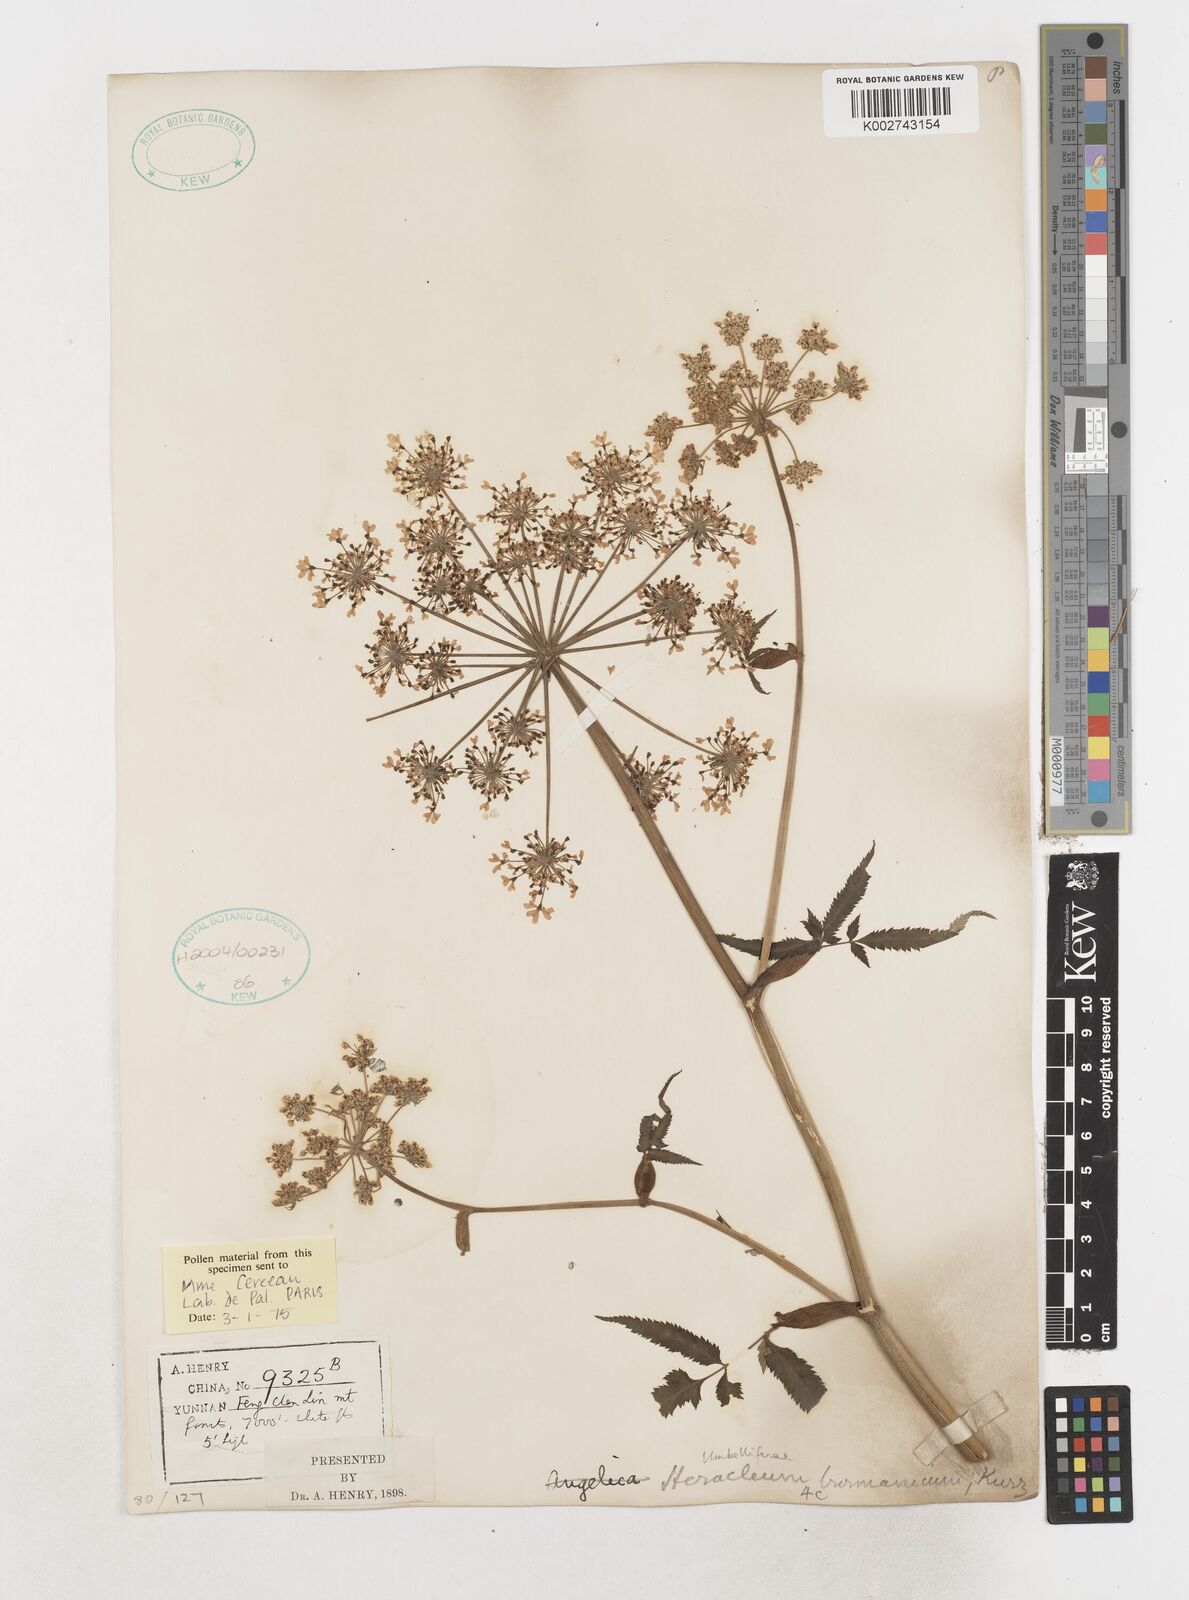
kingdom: Plantae
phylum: Tracheophyta
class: Magnoliopsida
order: Apiales
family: Apiaceae
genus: Tetrataenium
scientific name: Tetrataenium birmanicum
